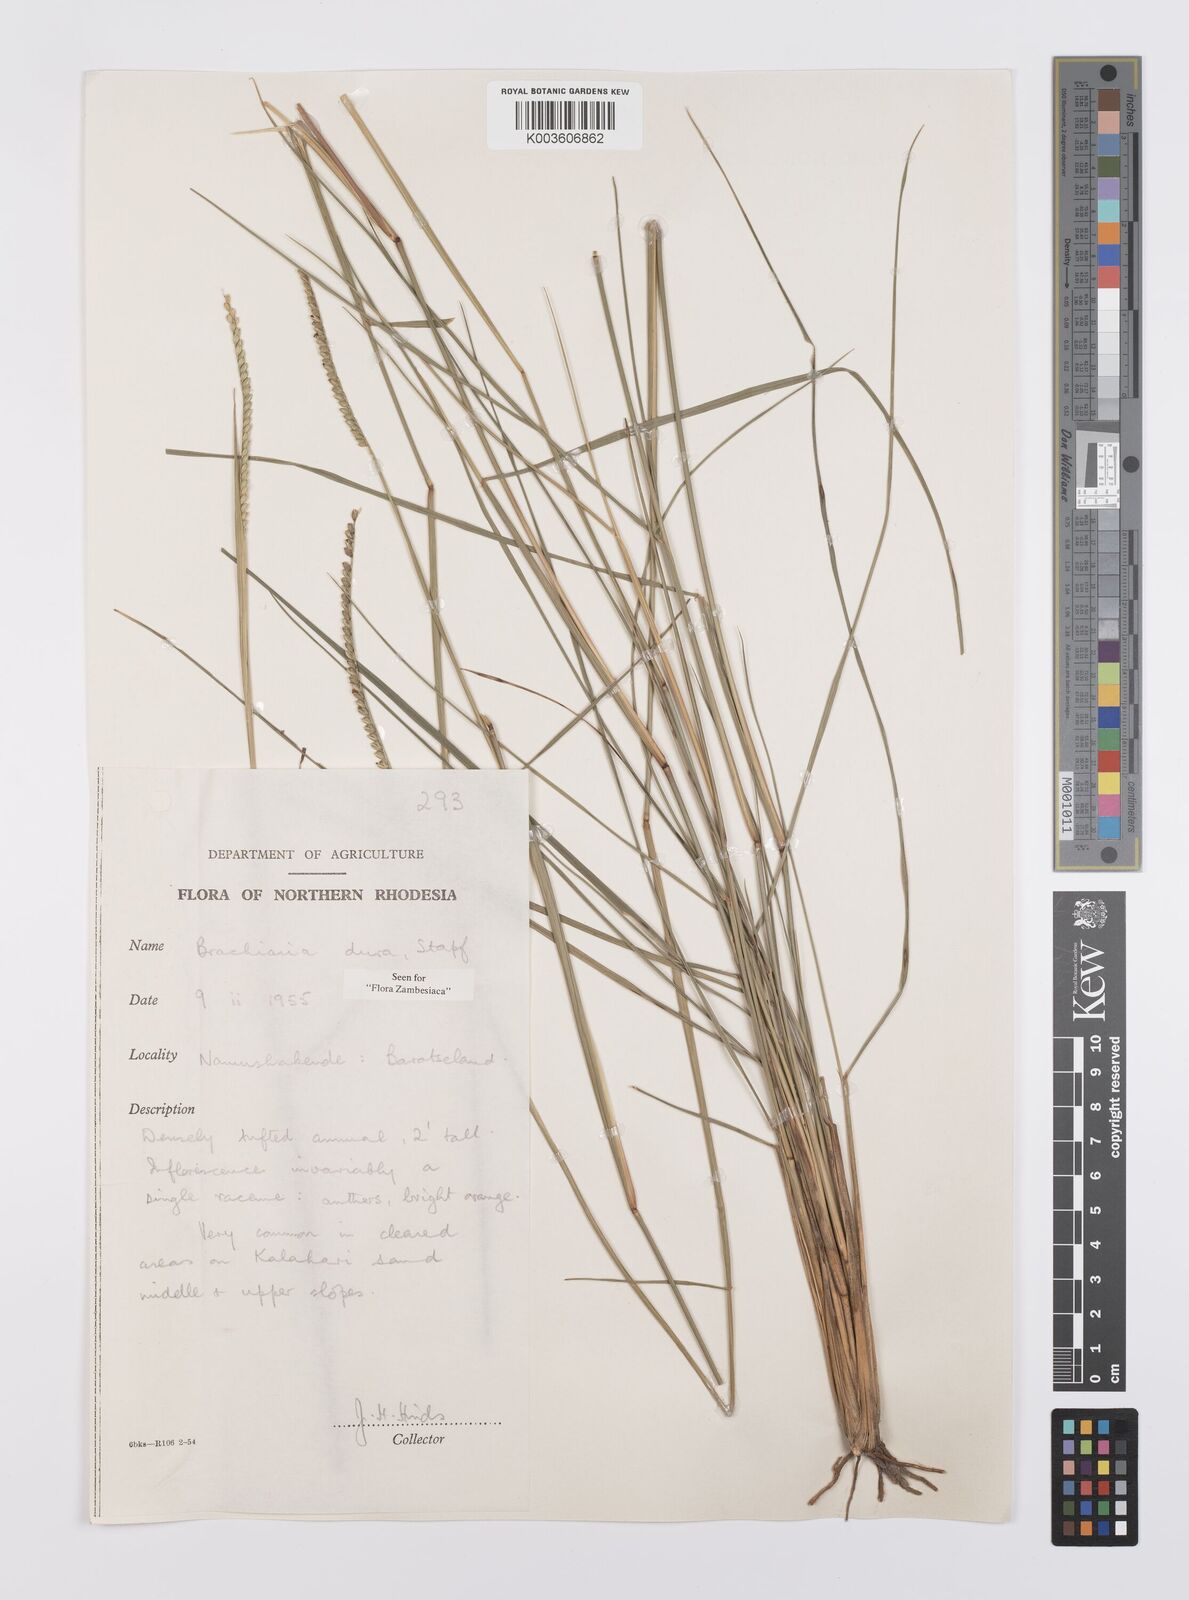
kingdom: Plantae
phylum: Tracheophyta
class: Liliopsida
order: Poales
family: Poaceae
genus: Urochloa
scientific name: Urochloa dura
